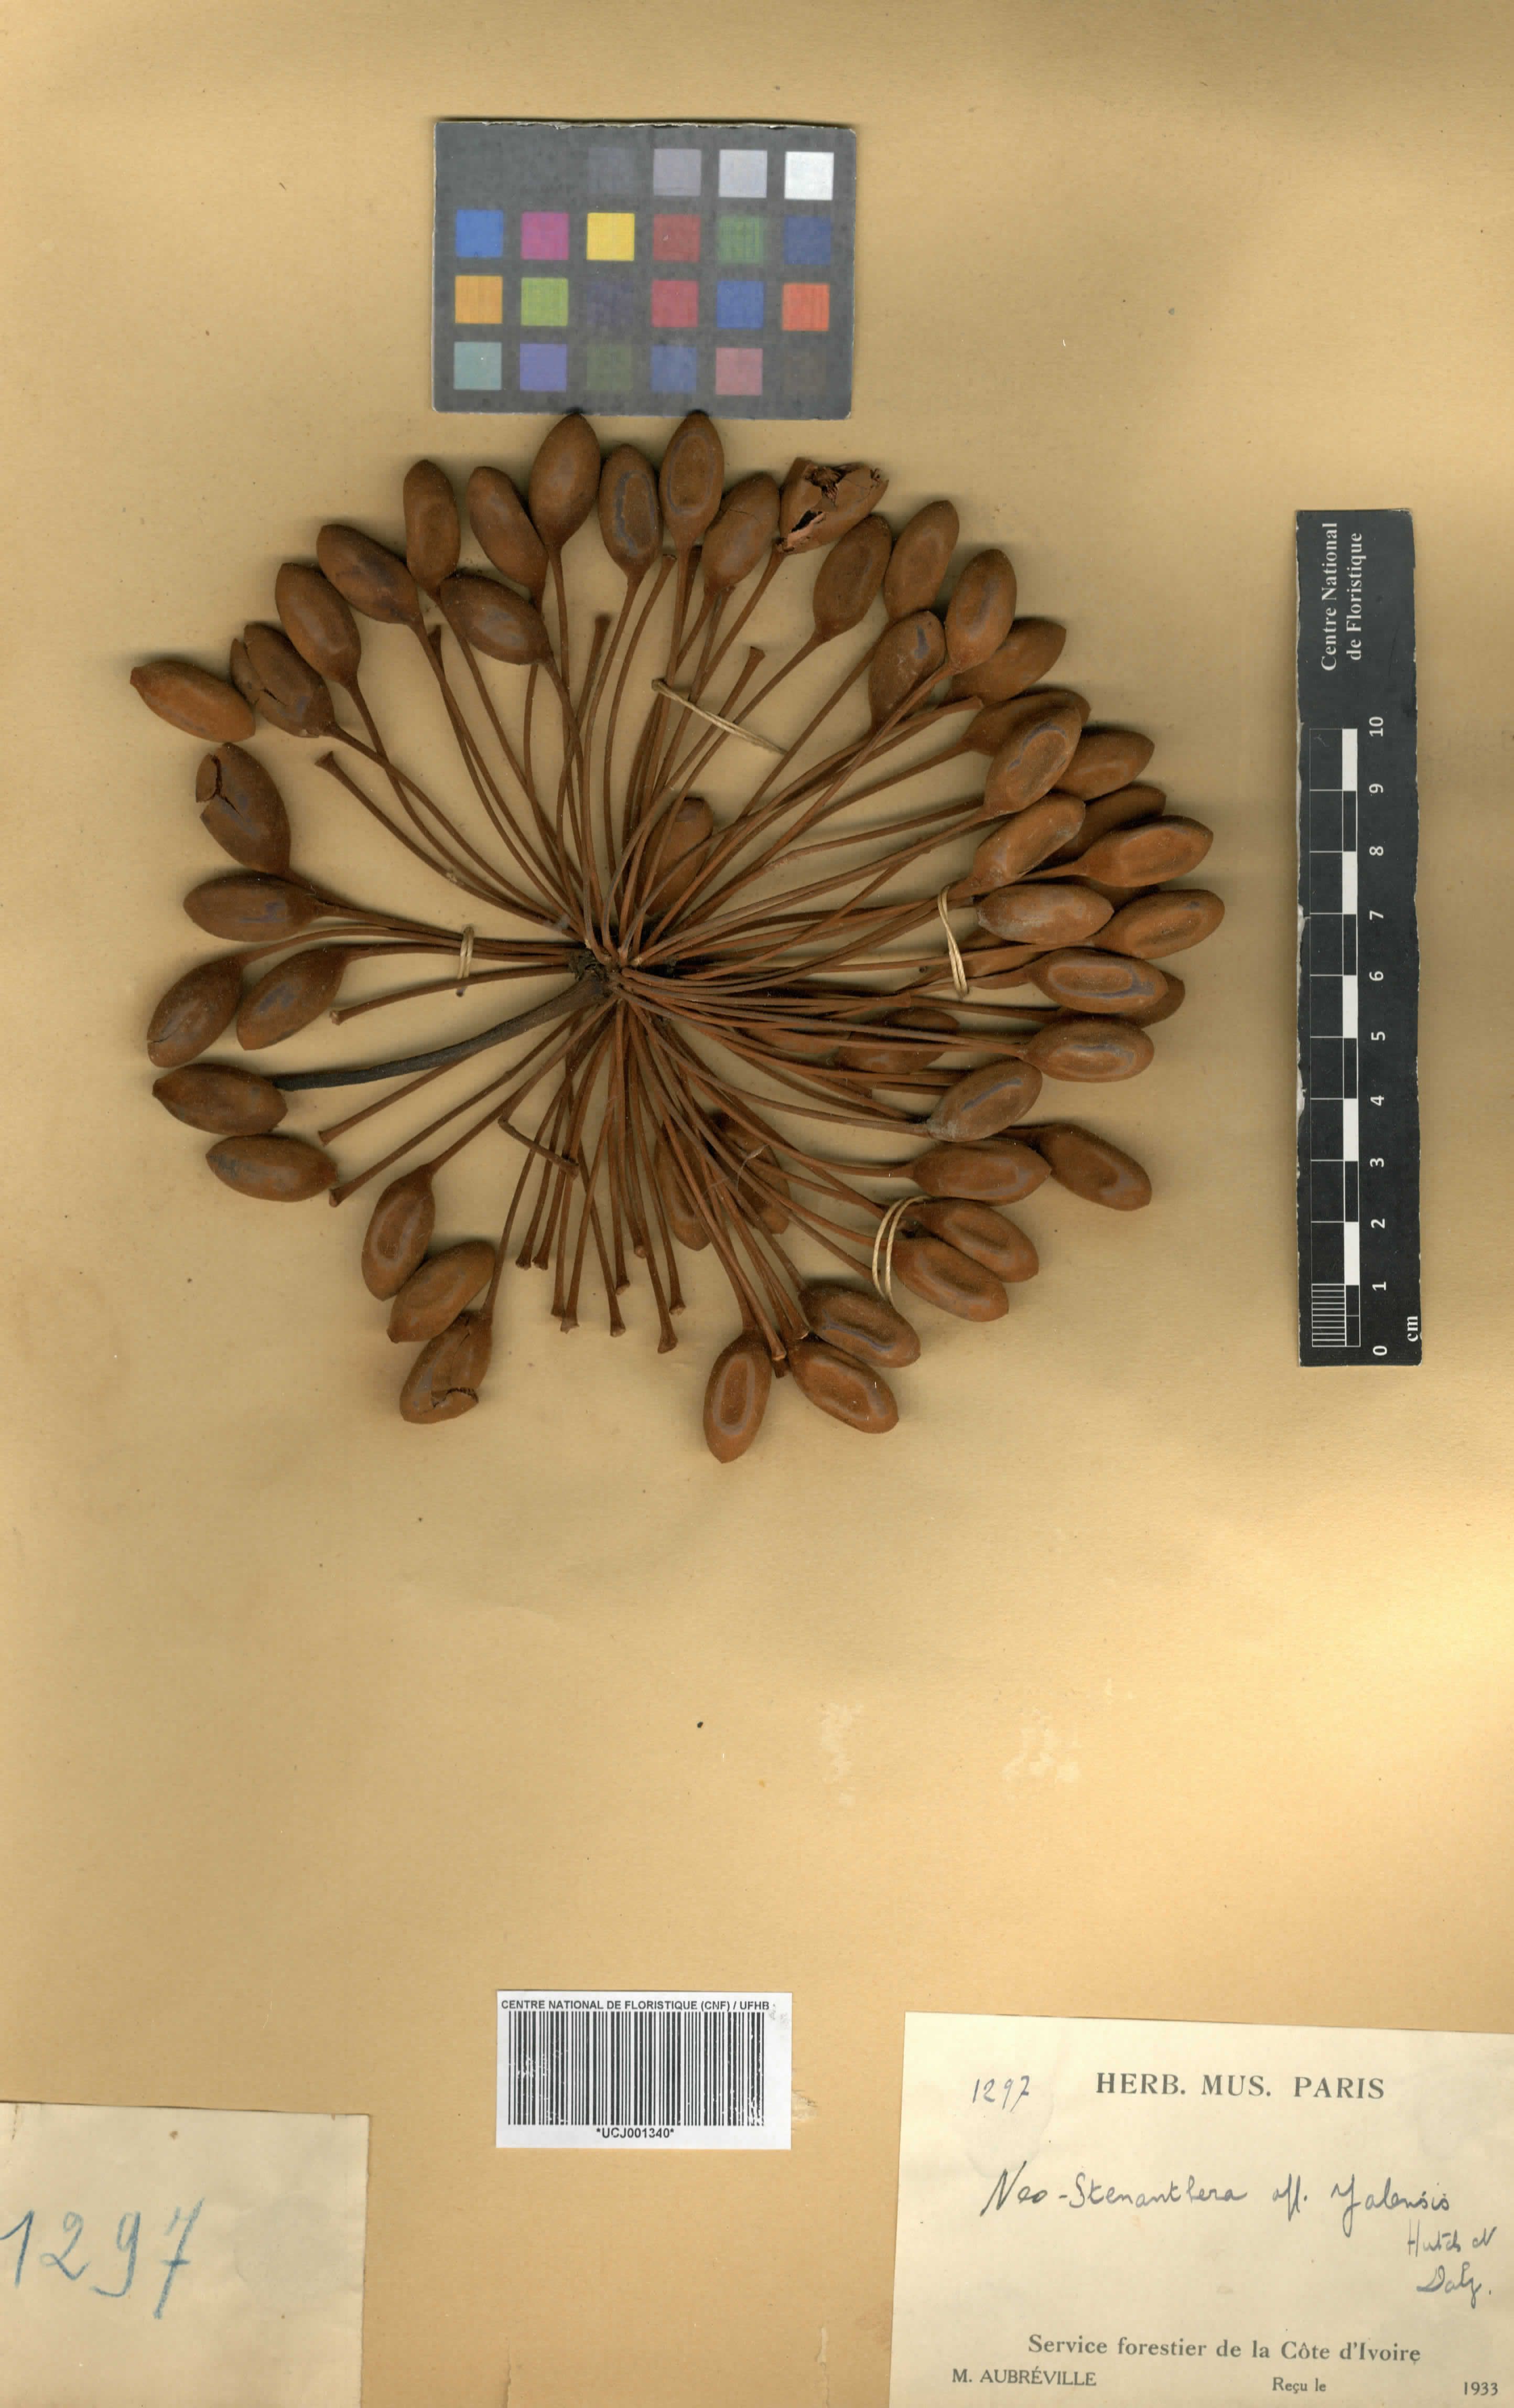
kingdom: Plantae
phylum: Tracheophyta
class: Magnoliopsida
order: Magnoliales
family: Annonaceae
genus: Neostenanthera
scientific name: Neostenanthera
